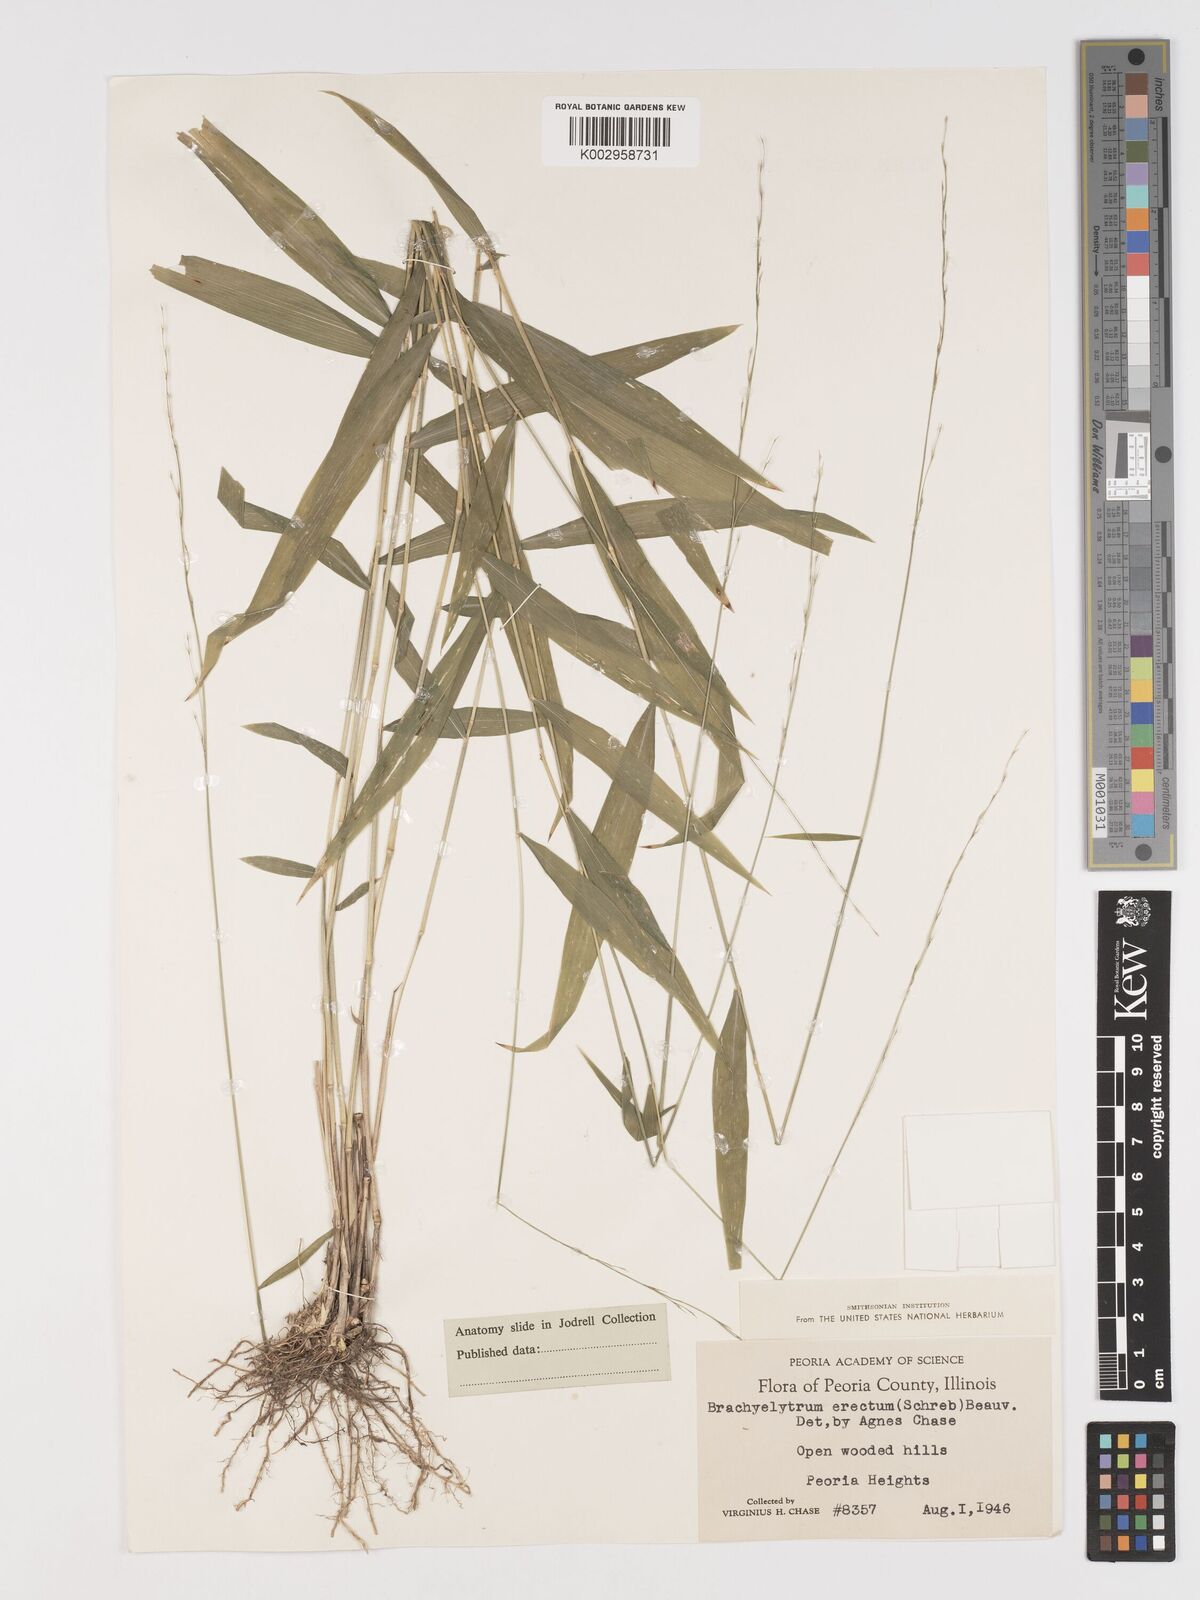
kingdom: Plantae
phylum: Tracheophyta
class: Liliopsida
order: Poales
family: Poaceae
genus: Brachyelytrum
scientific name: Brachyelytrum erectum
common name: Bearded shorthusk
